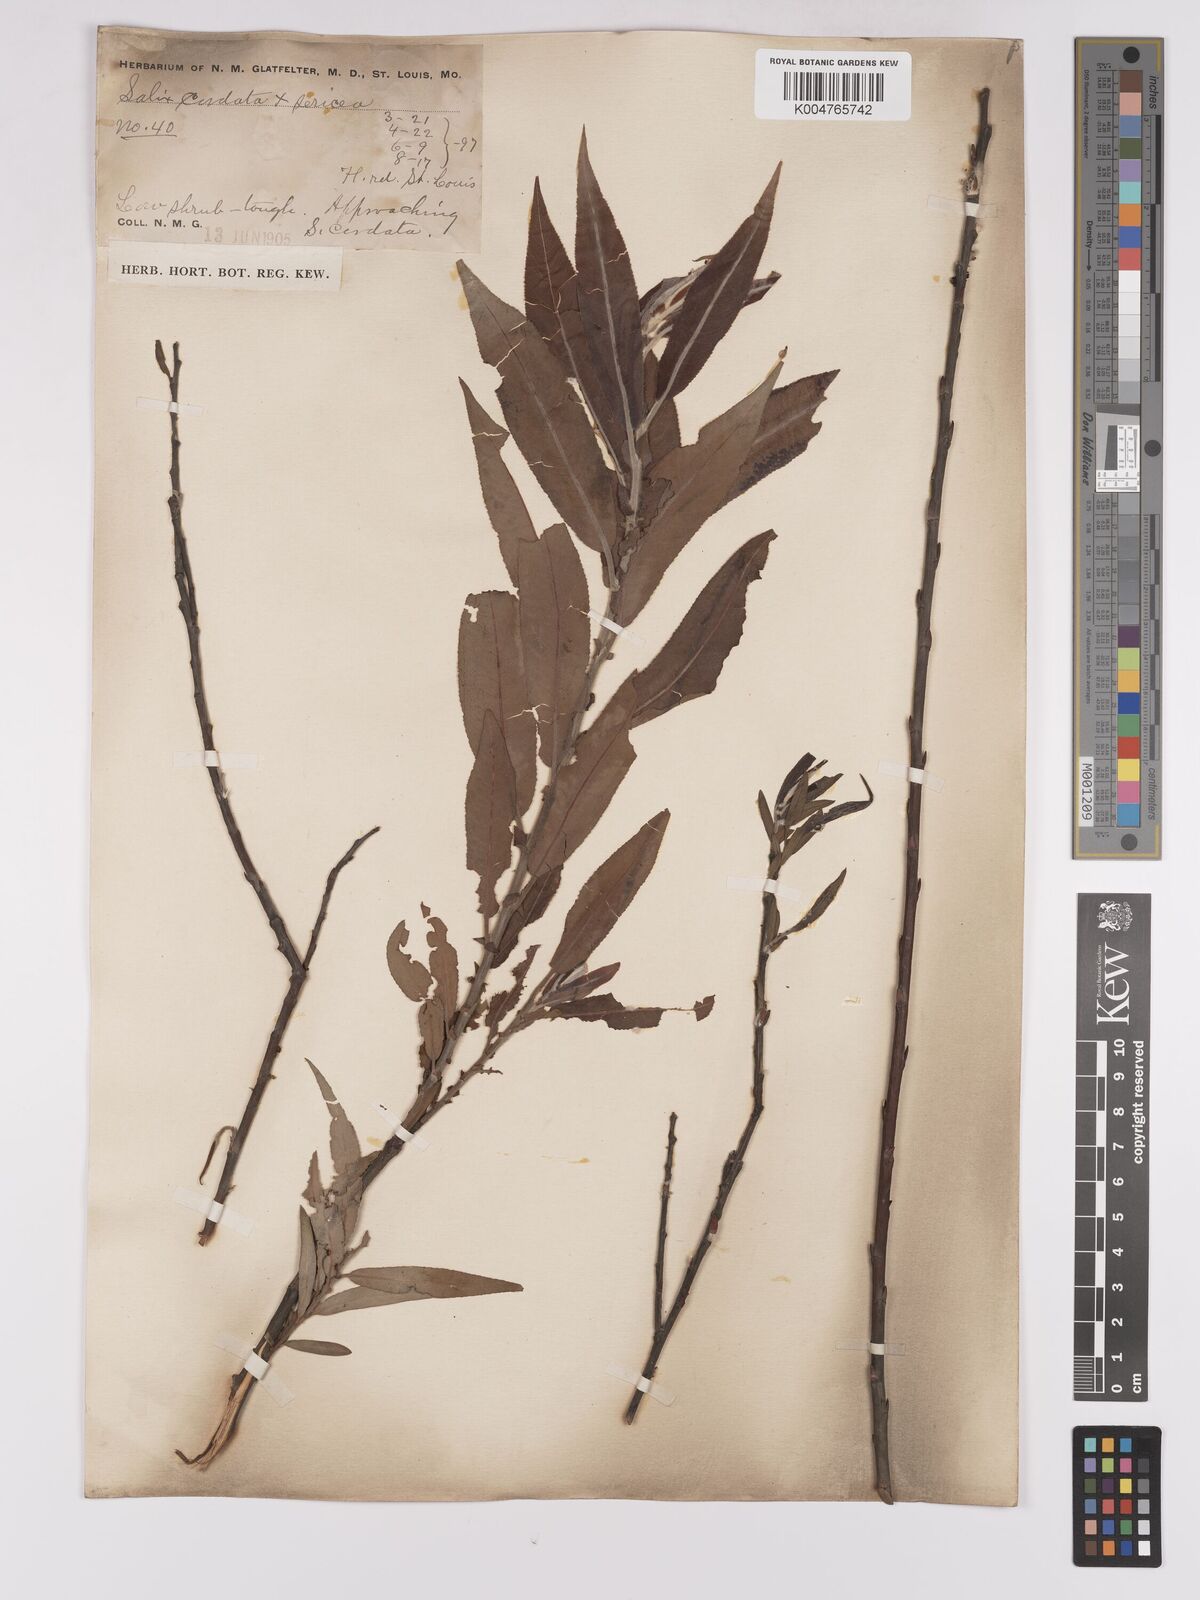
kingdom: Plantae
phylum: Tracheophyta
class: Magnoliopsida
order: Malpighiales
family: Salicaceae
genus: Salix
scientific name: Salix cordata
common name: Heart-leaf willow
